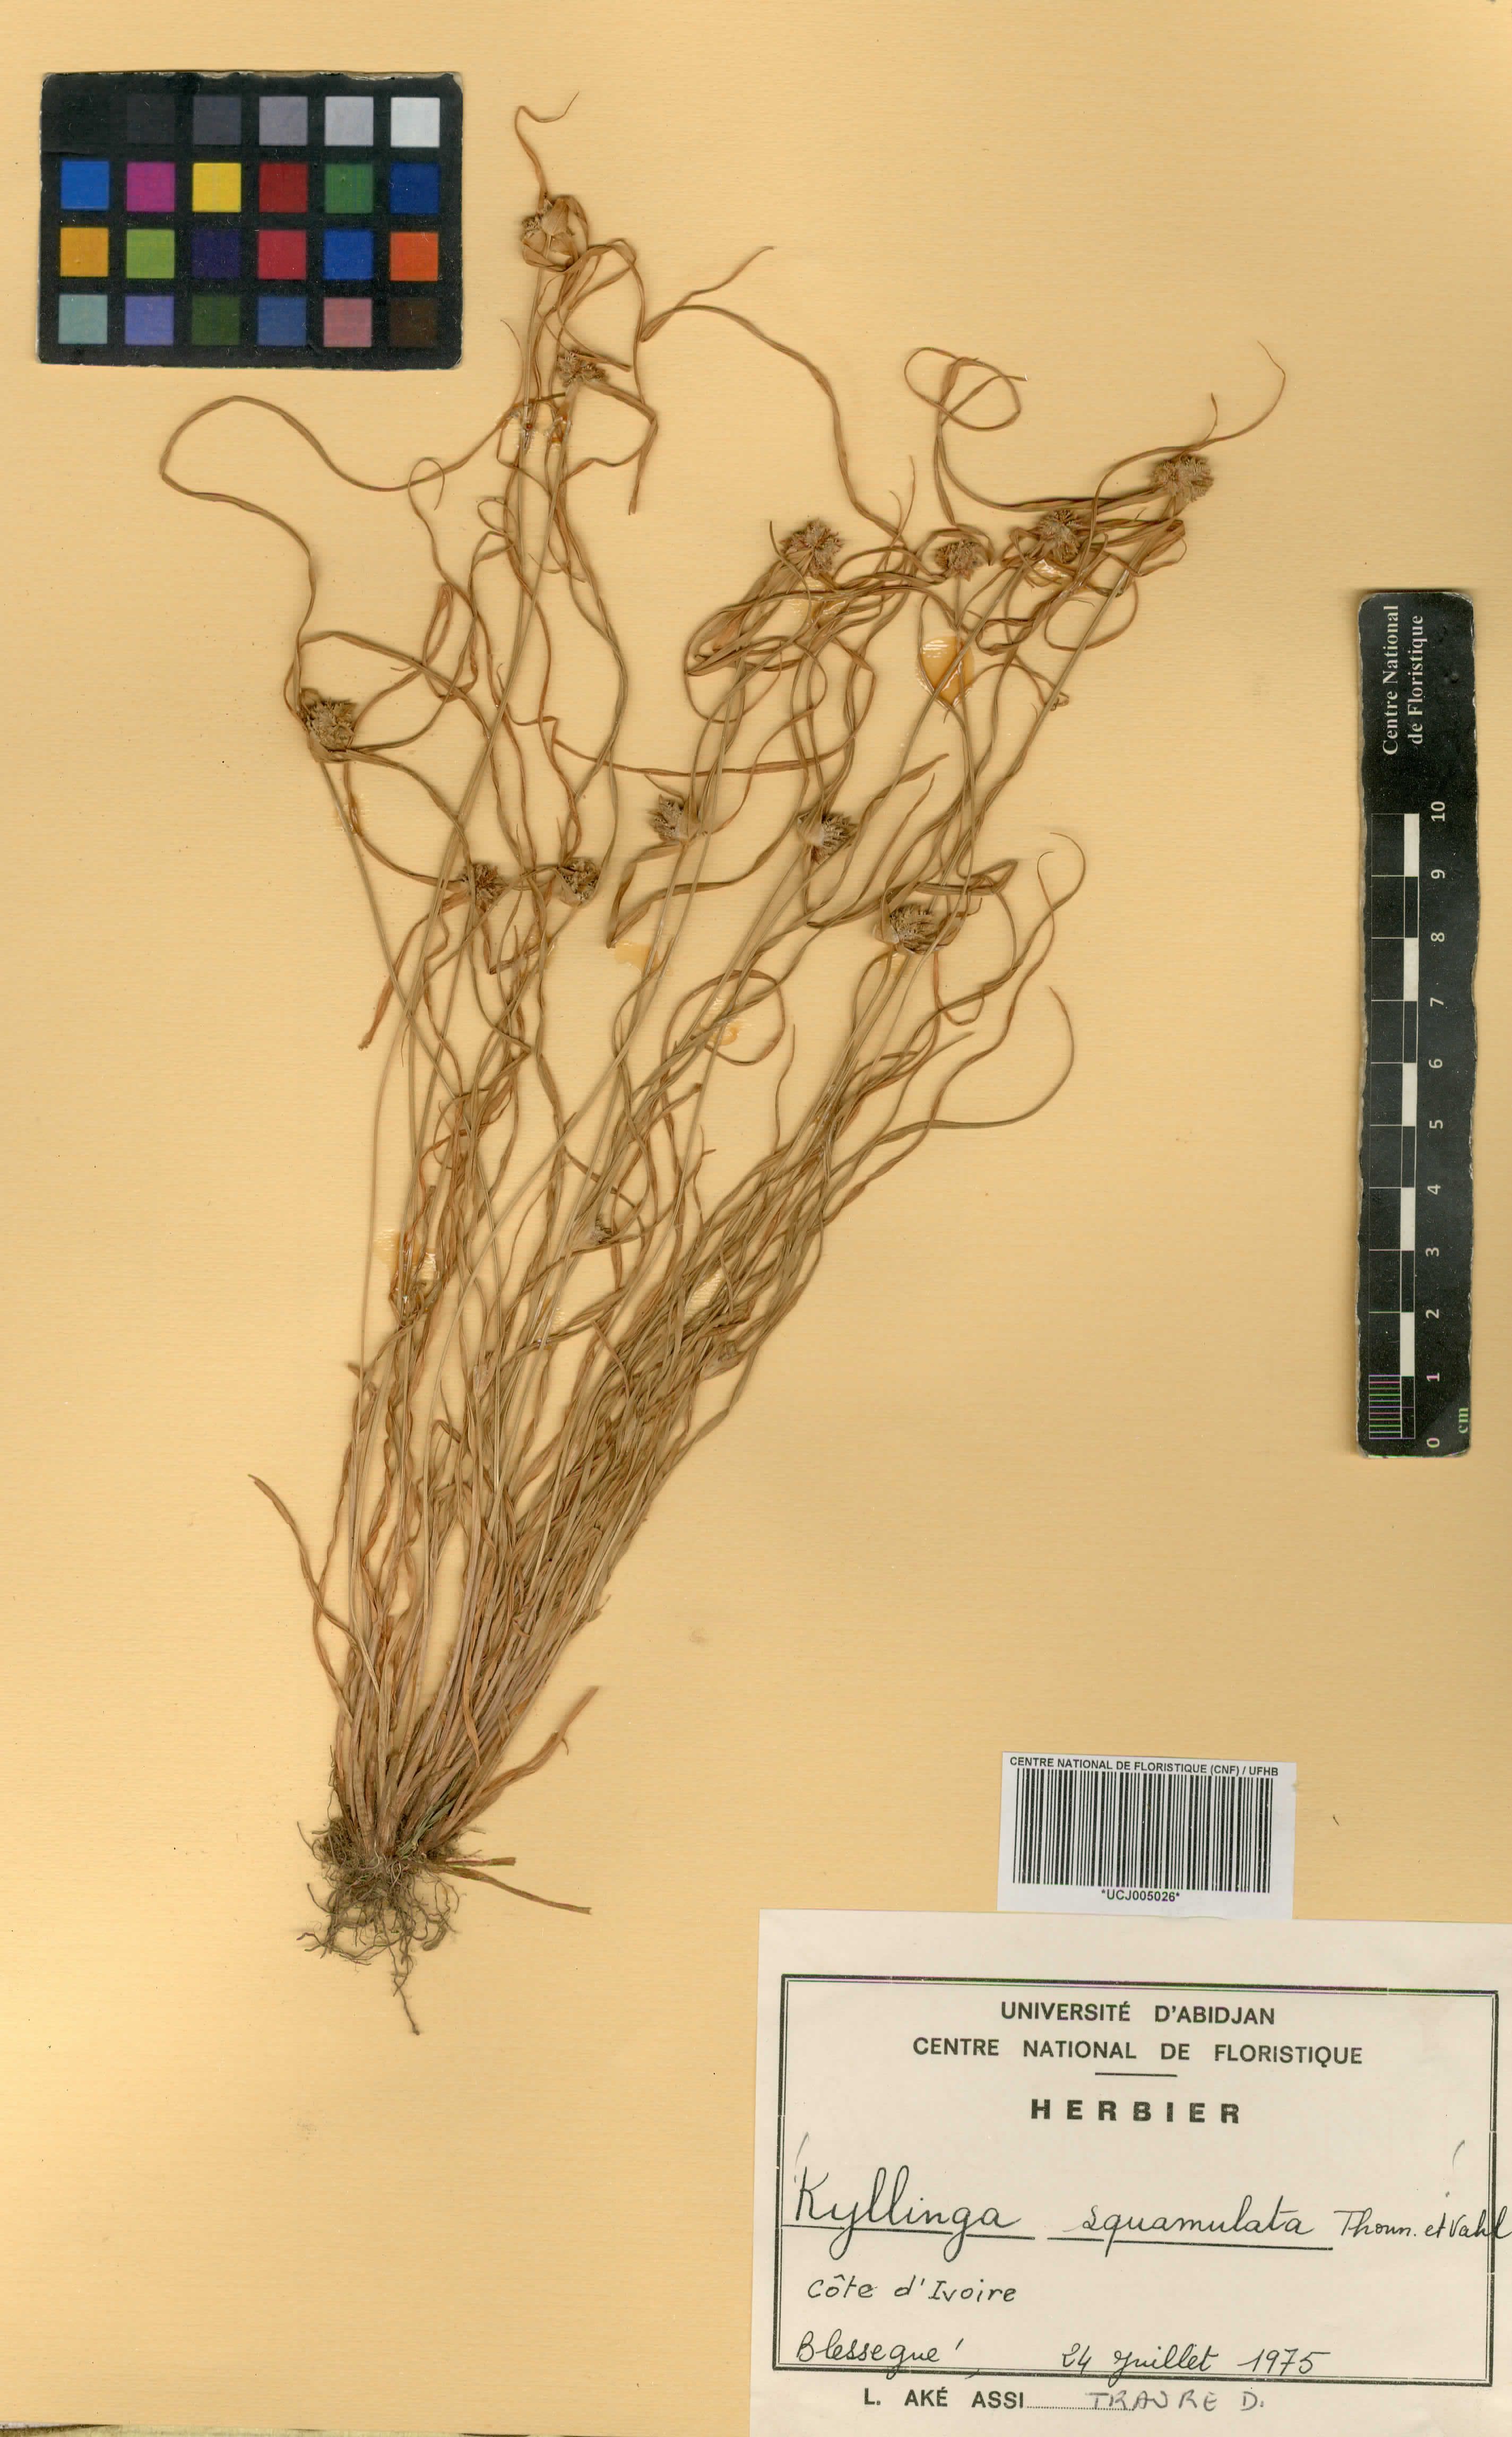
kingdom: Plantae
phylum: Tracheophyta
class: Liliopsida
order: Poales
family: Cyperaceae
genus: Cyperus
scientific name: Cyperus metzii
